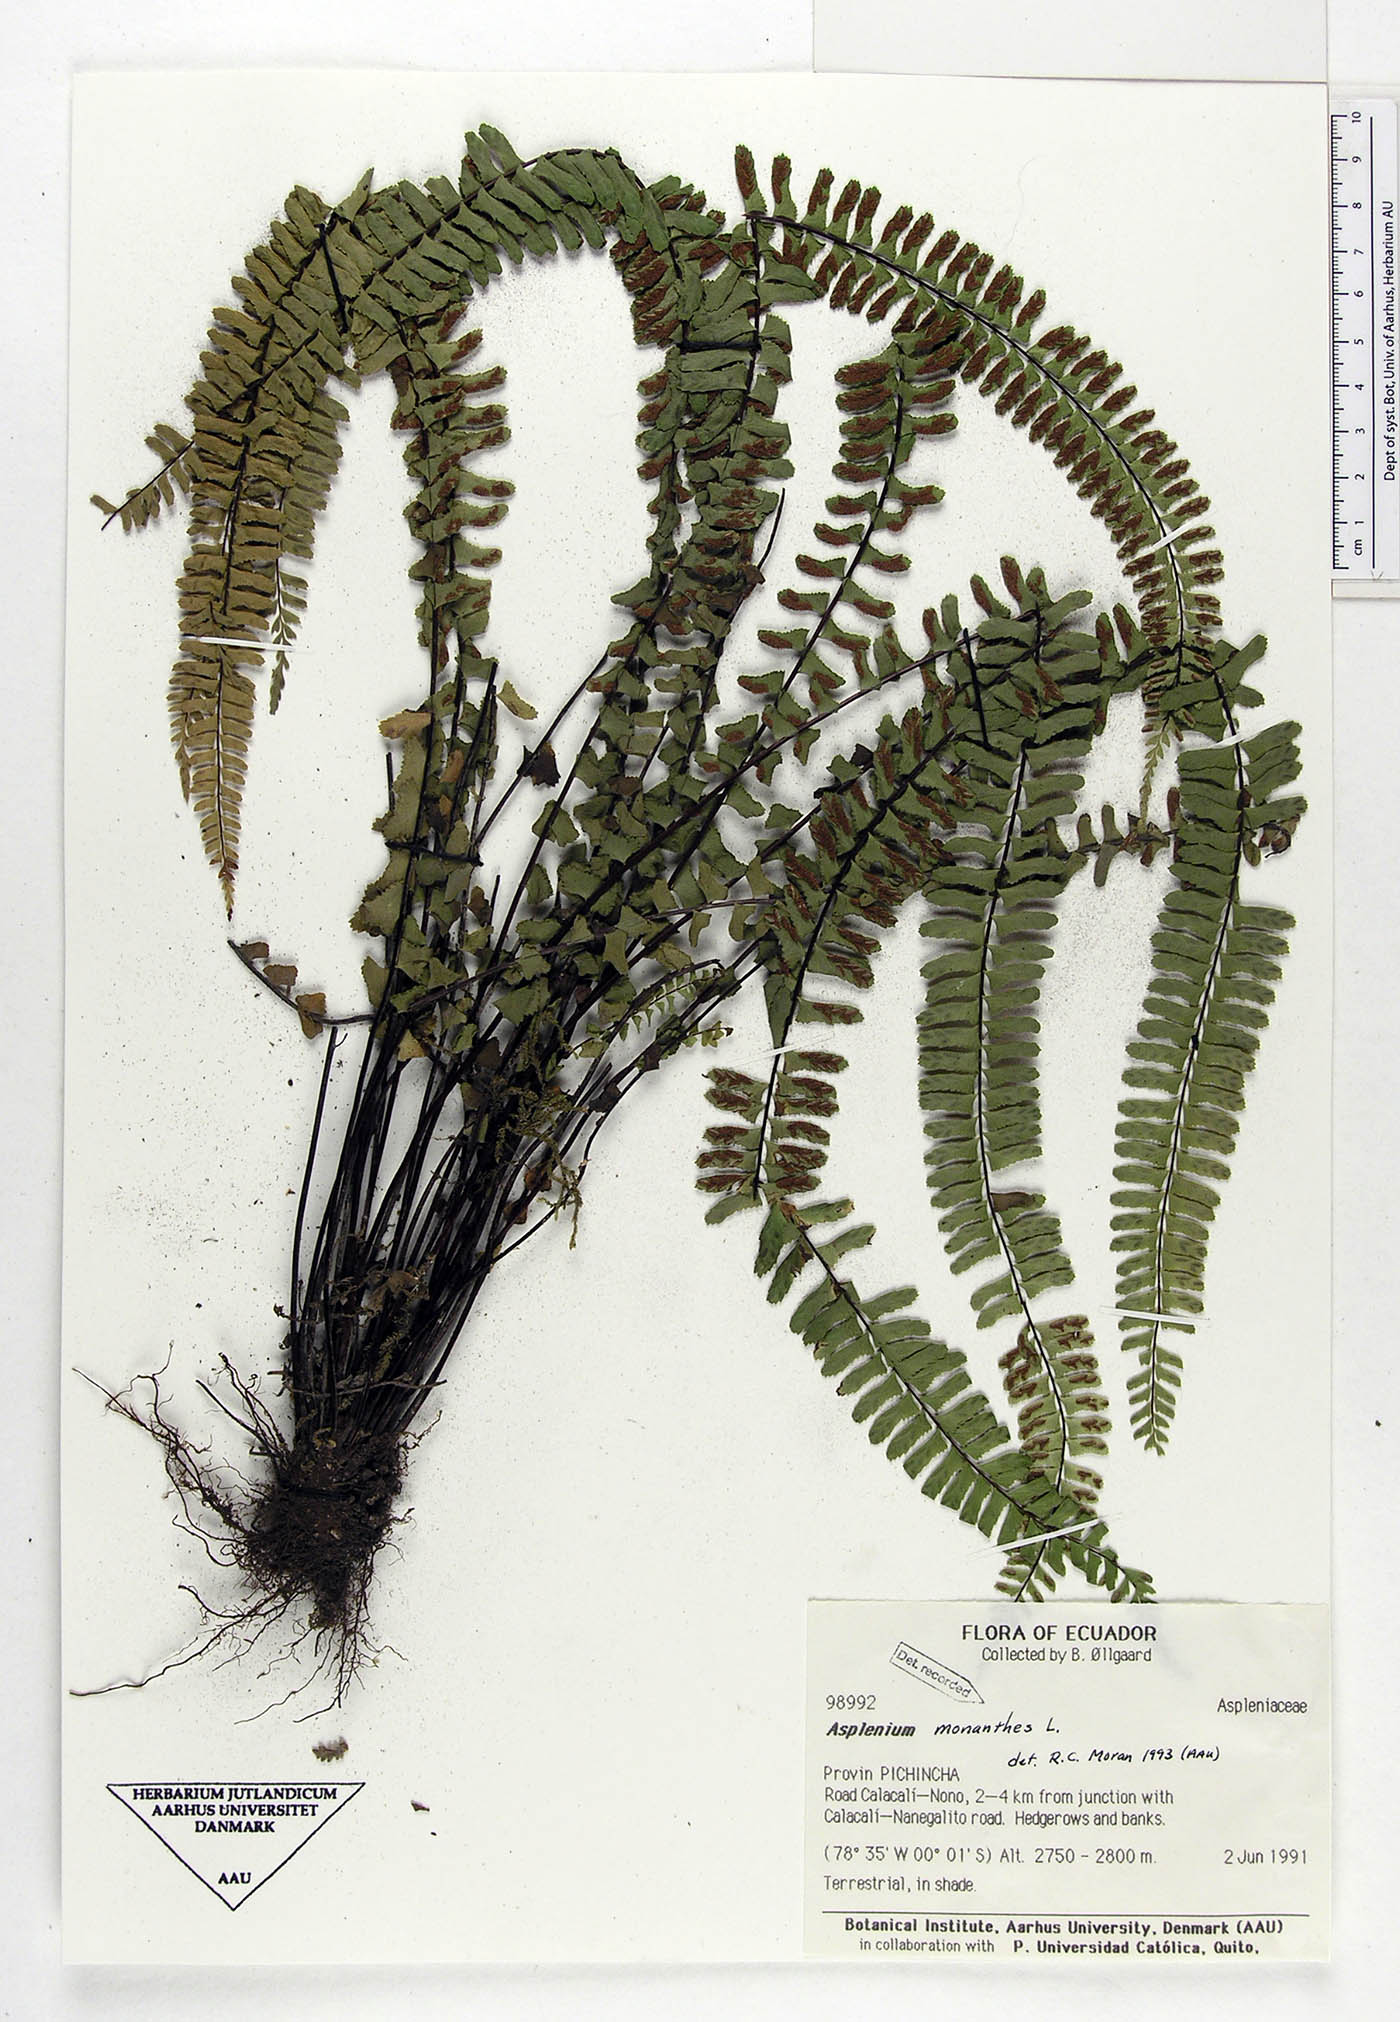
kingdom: Plantae
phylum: Tracheophyta
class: Polypodiopsida
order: Polypodiales
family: Aspleniaceae
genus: Asplenium
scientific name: Asplenium monanthes
